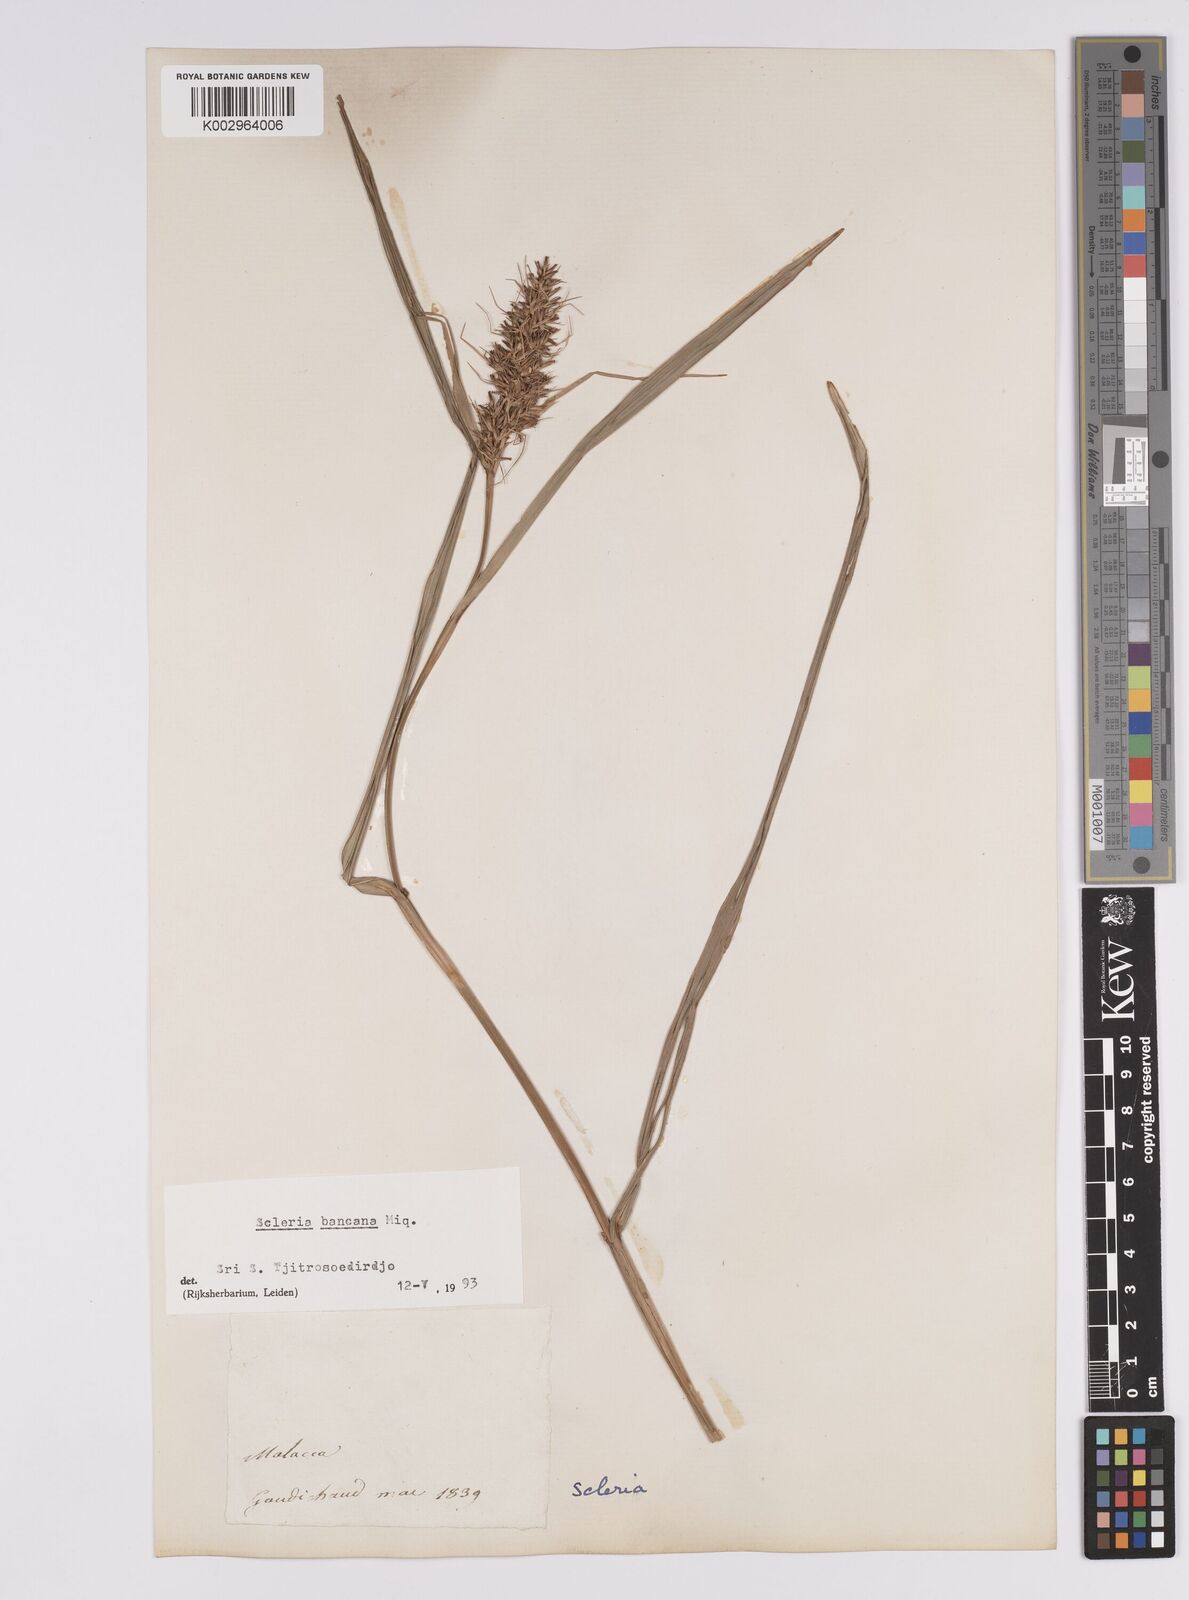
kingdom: Plantae
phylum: Tracheophyta
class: Liliopsida
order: Poales
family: Cyperaceae
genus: Scleria
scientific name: Scleria ciliaris
